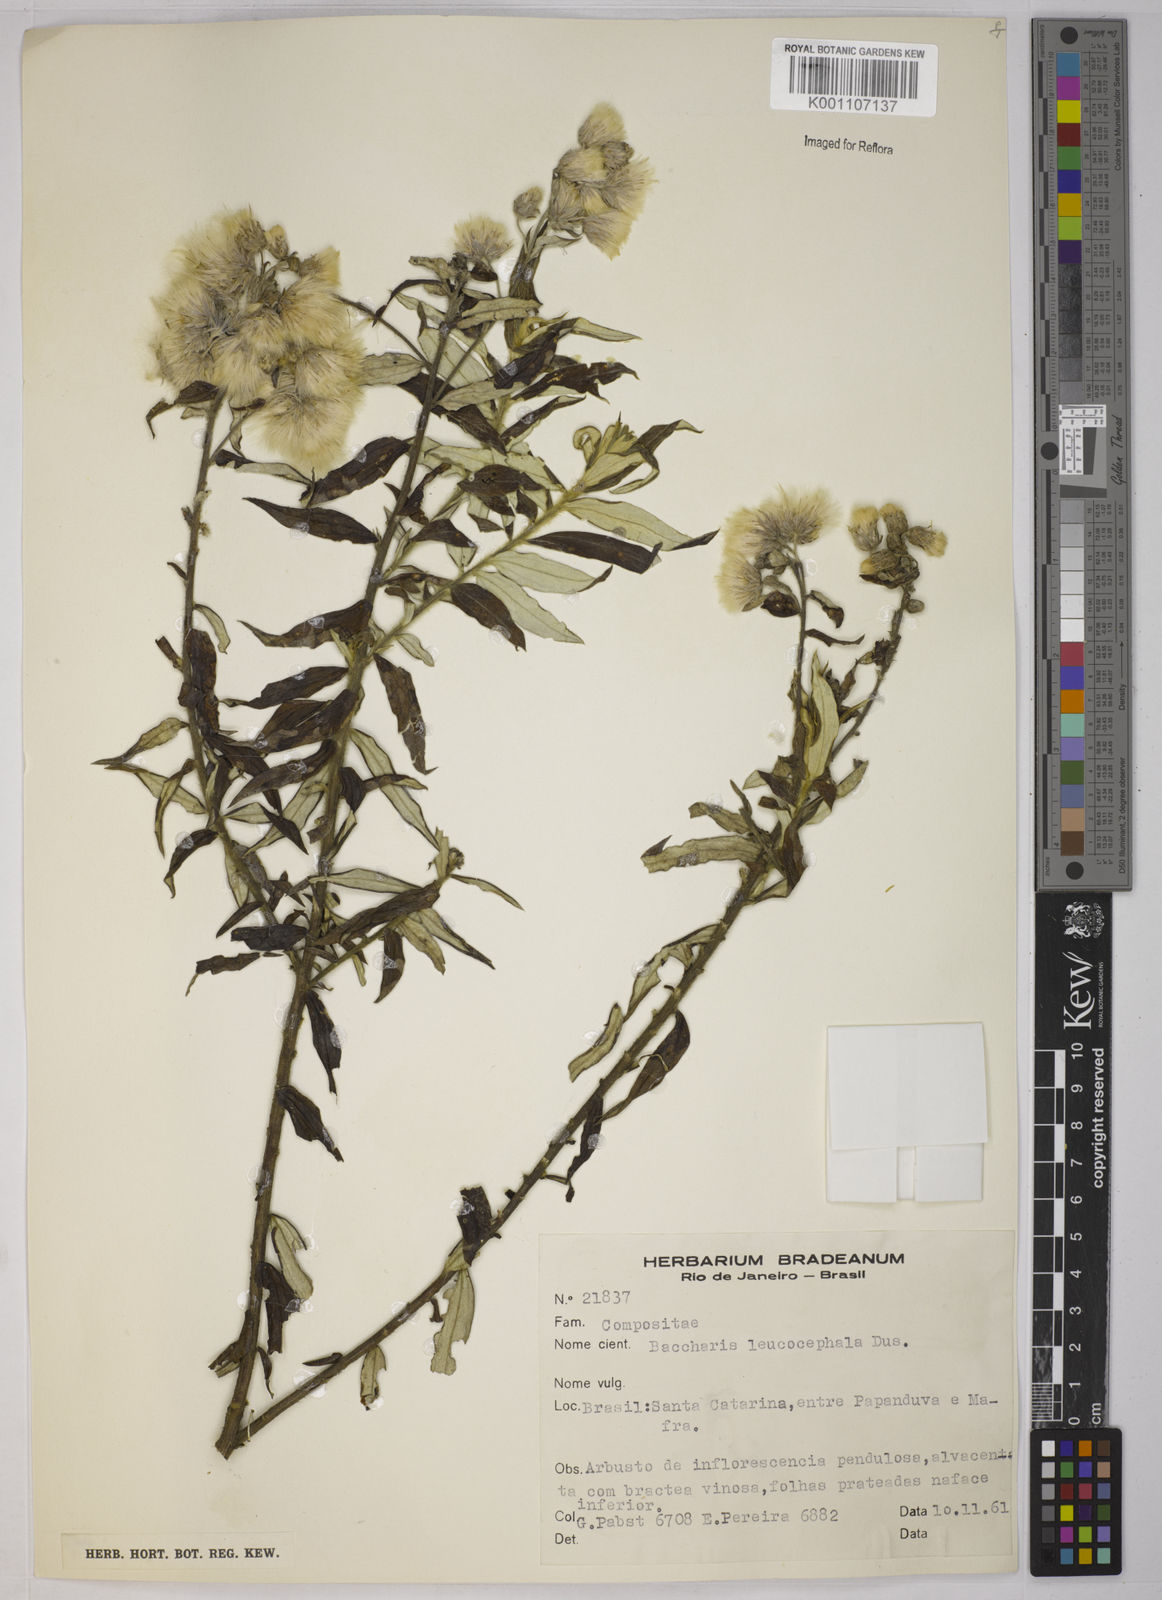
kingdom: Plantae
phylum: Tracheophyta
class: Magnoliopsida
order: Asterales
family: Asteraceae
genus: Baccharis
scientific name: Baccharis
